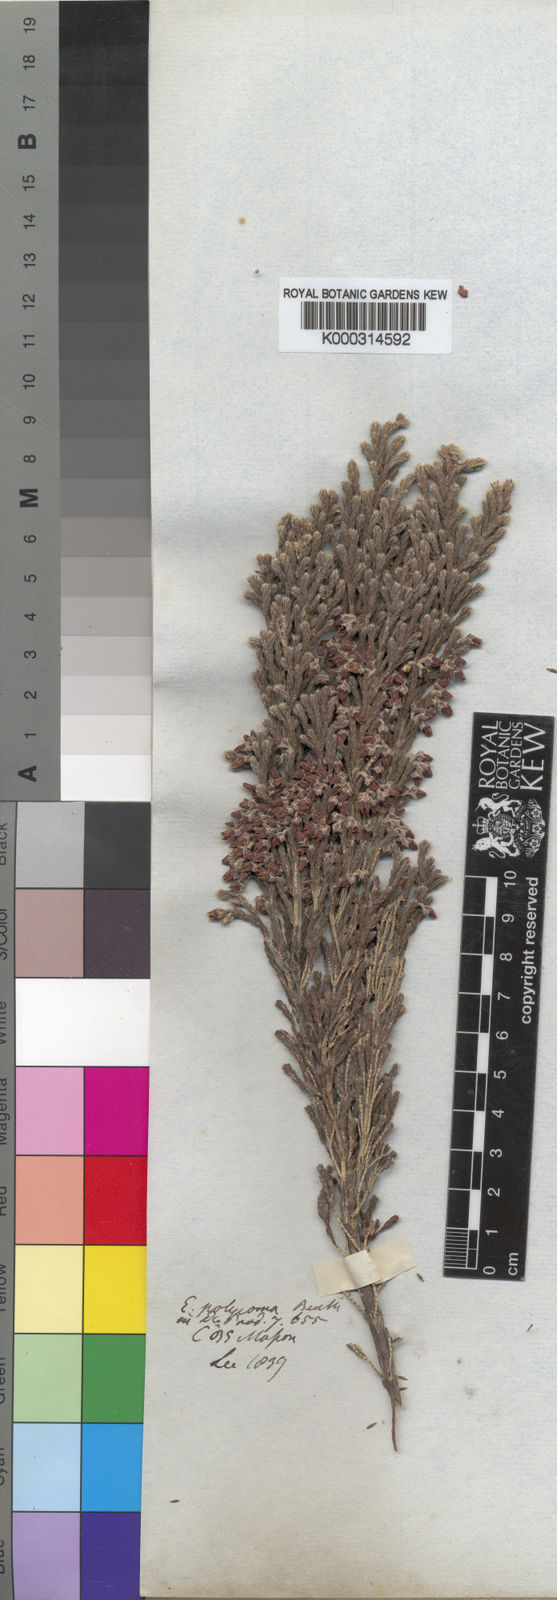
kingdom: Plantae
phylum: Tracheophyta
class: Magnoliopsida
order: Ericales
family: Ericaceae
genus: Erica
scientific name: Erica polycoma
